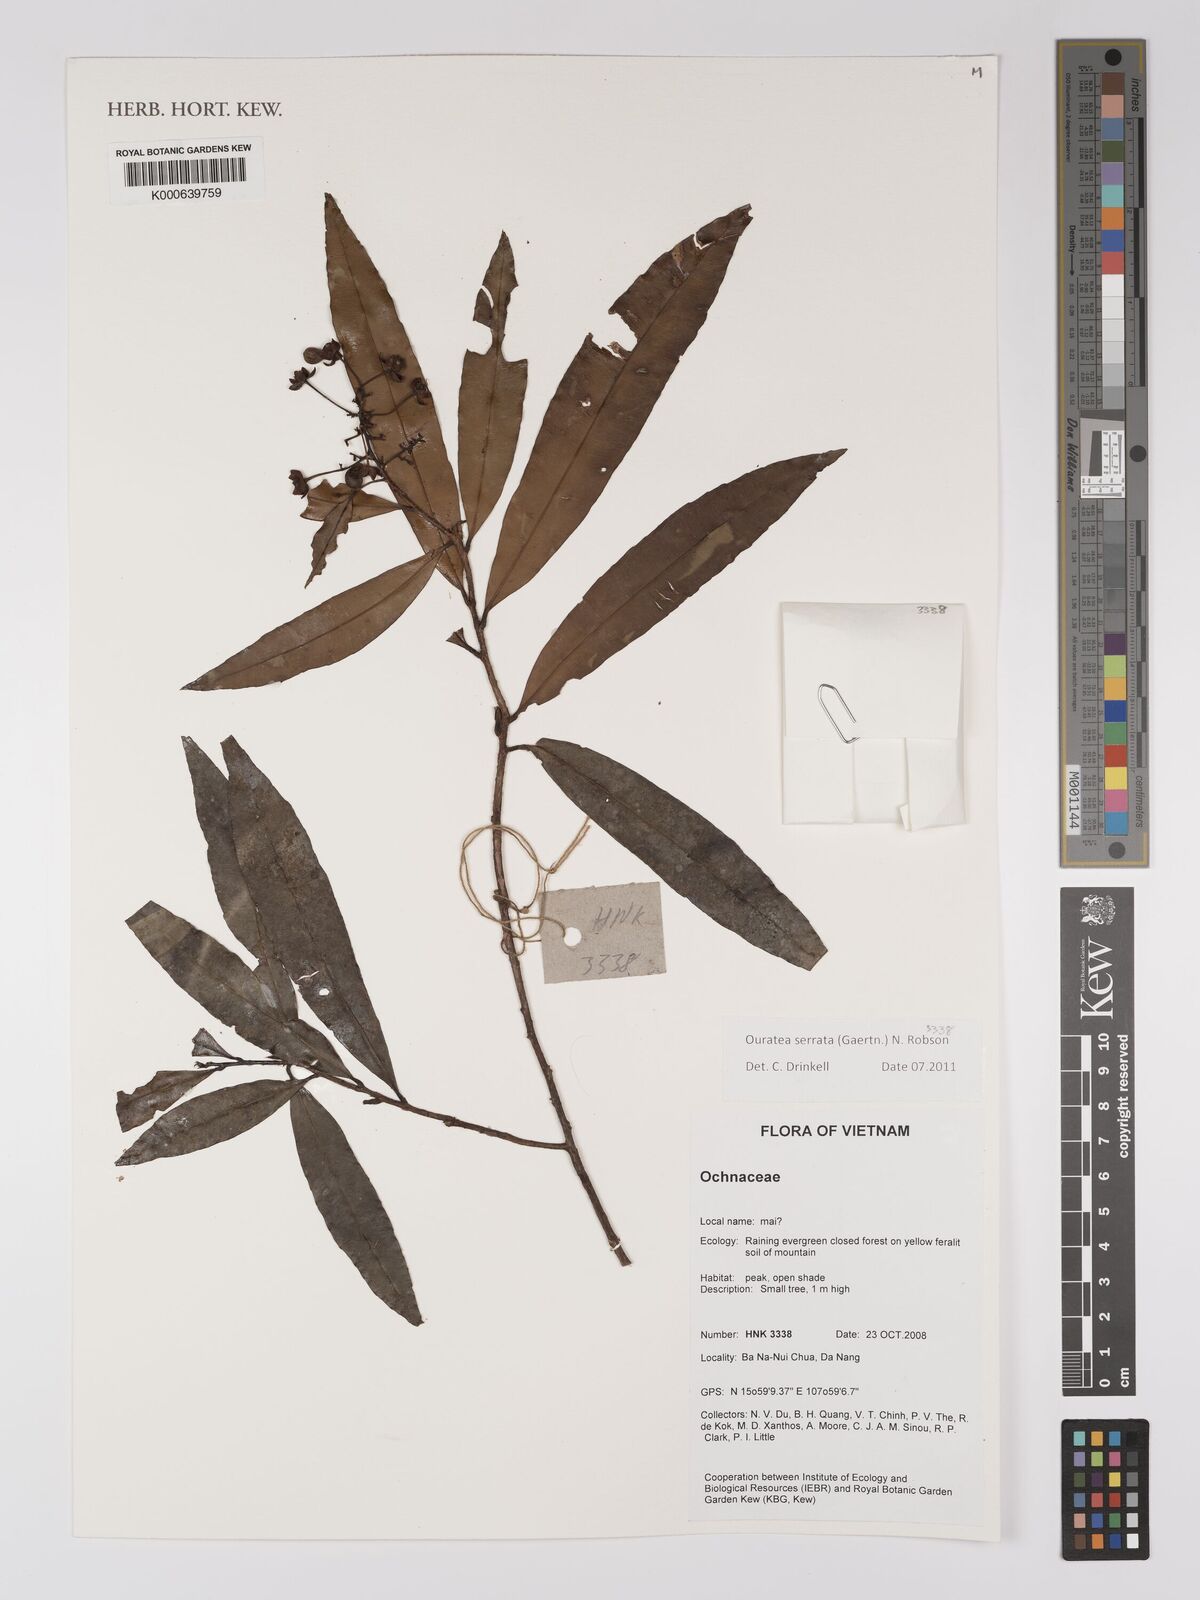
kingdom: Plantae
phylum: Tracheophyta
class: Magnoliopsida
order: Malpighiales
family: Ochnaceae
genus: Gomphia
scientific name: Gomphia serrata
